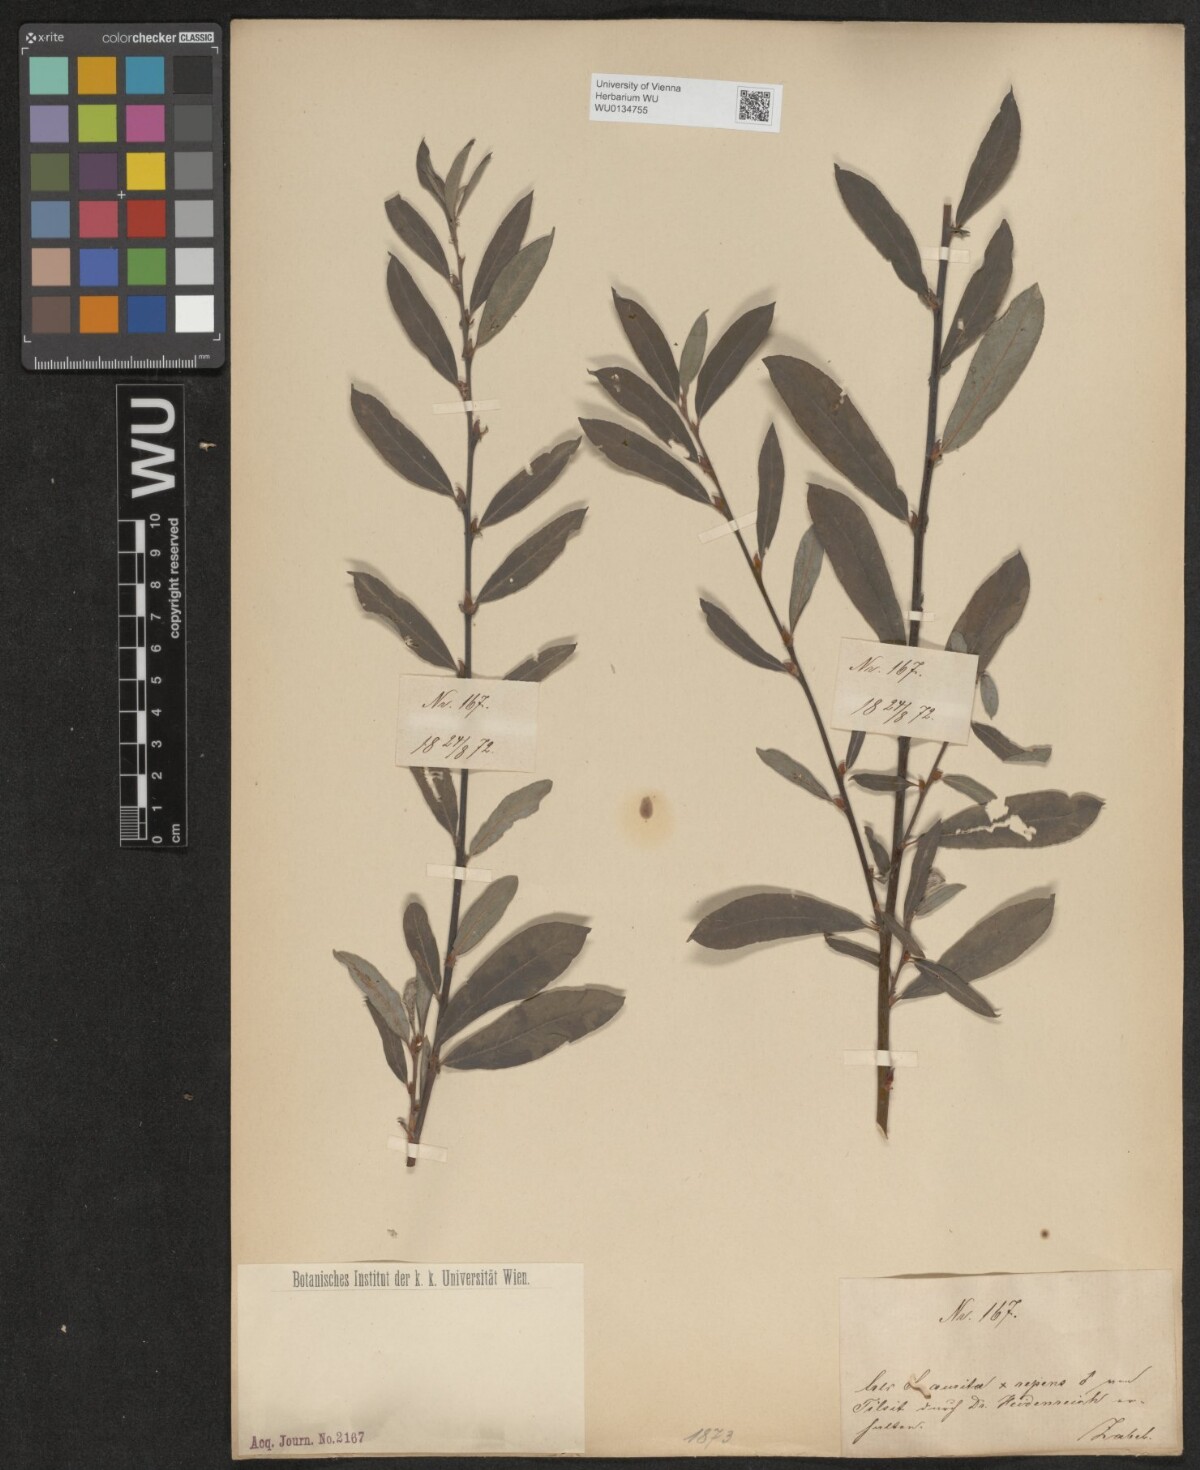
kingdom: Plantae
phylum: Tracheophyta
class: Magnoliopsida
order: Malpighiales
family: Salicaceae
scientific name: Salicaceae
